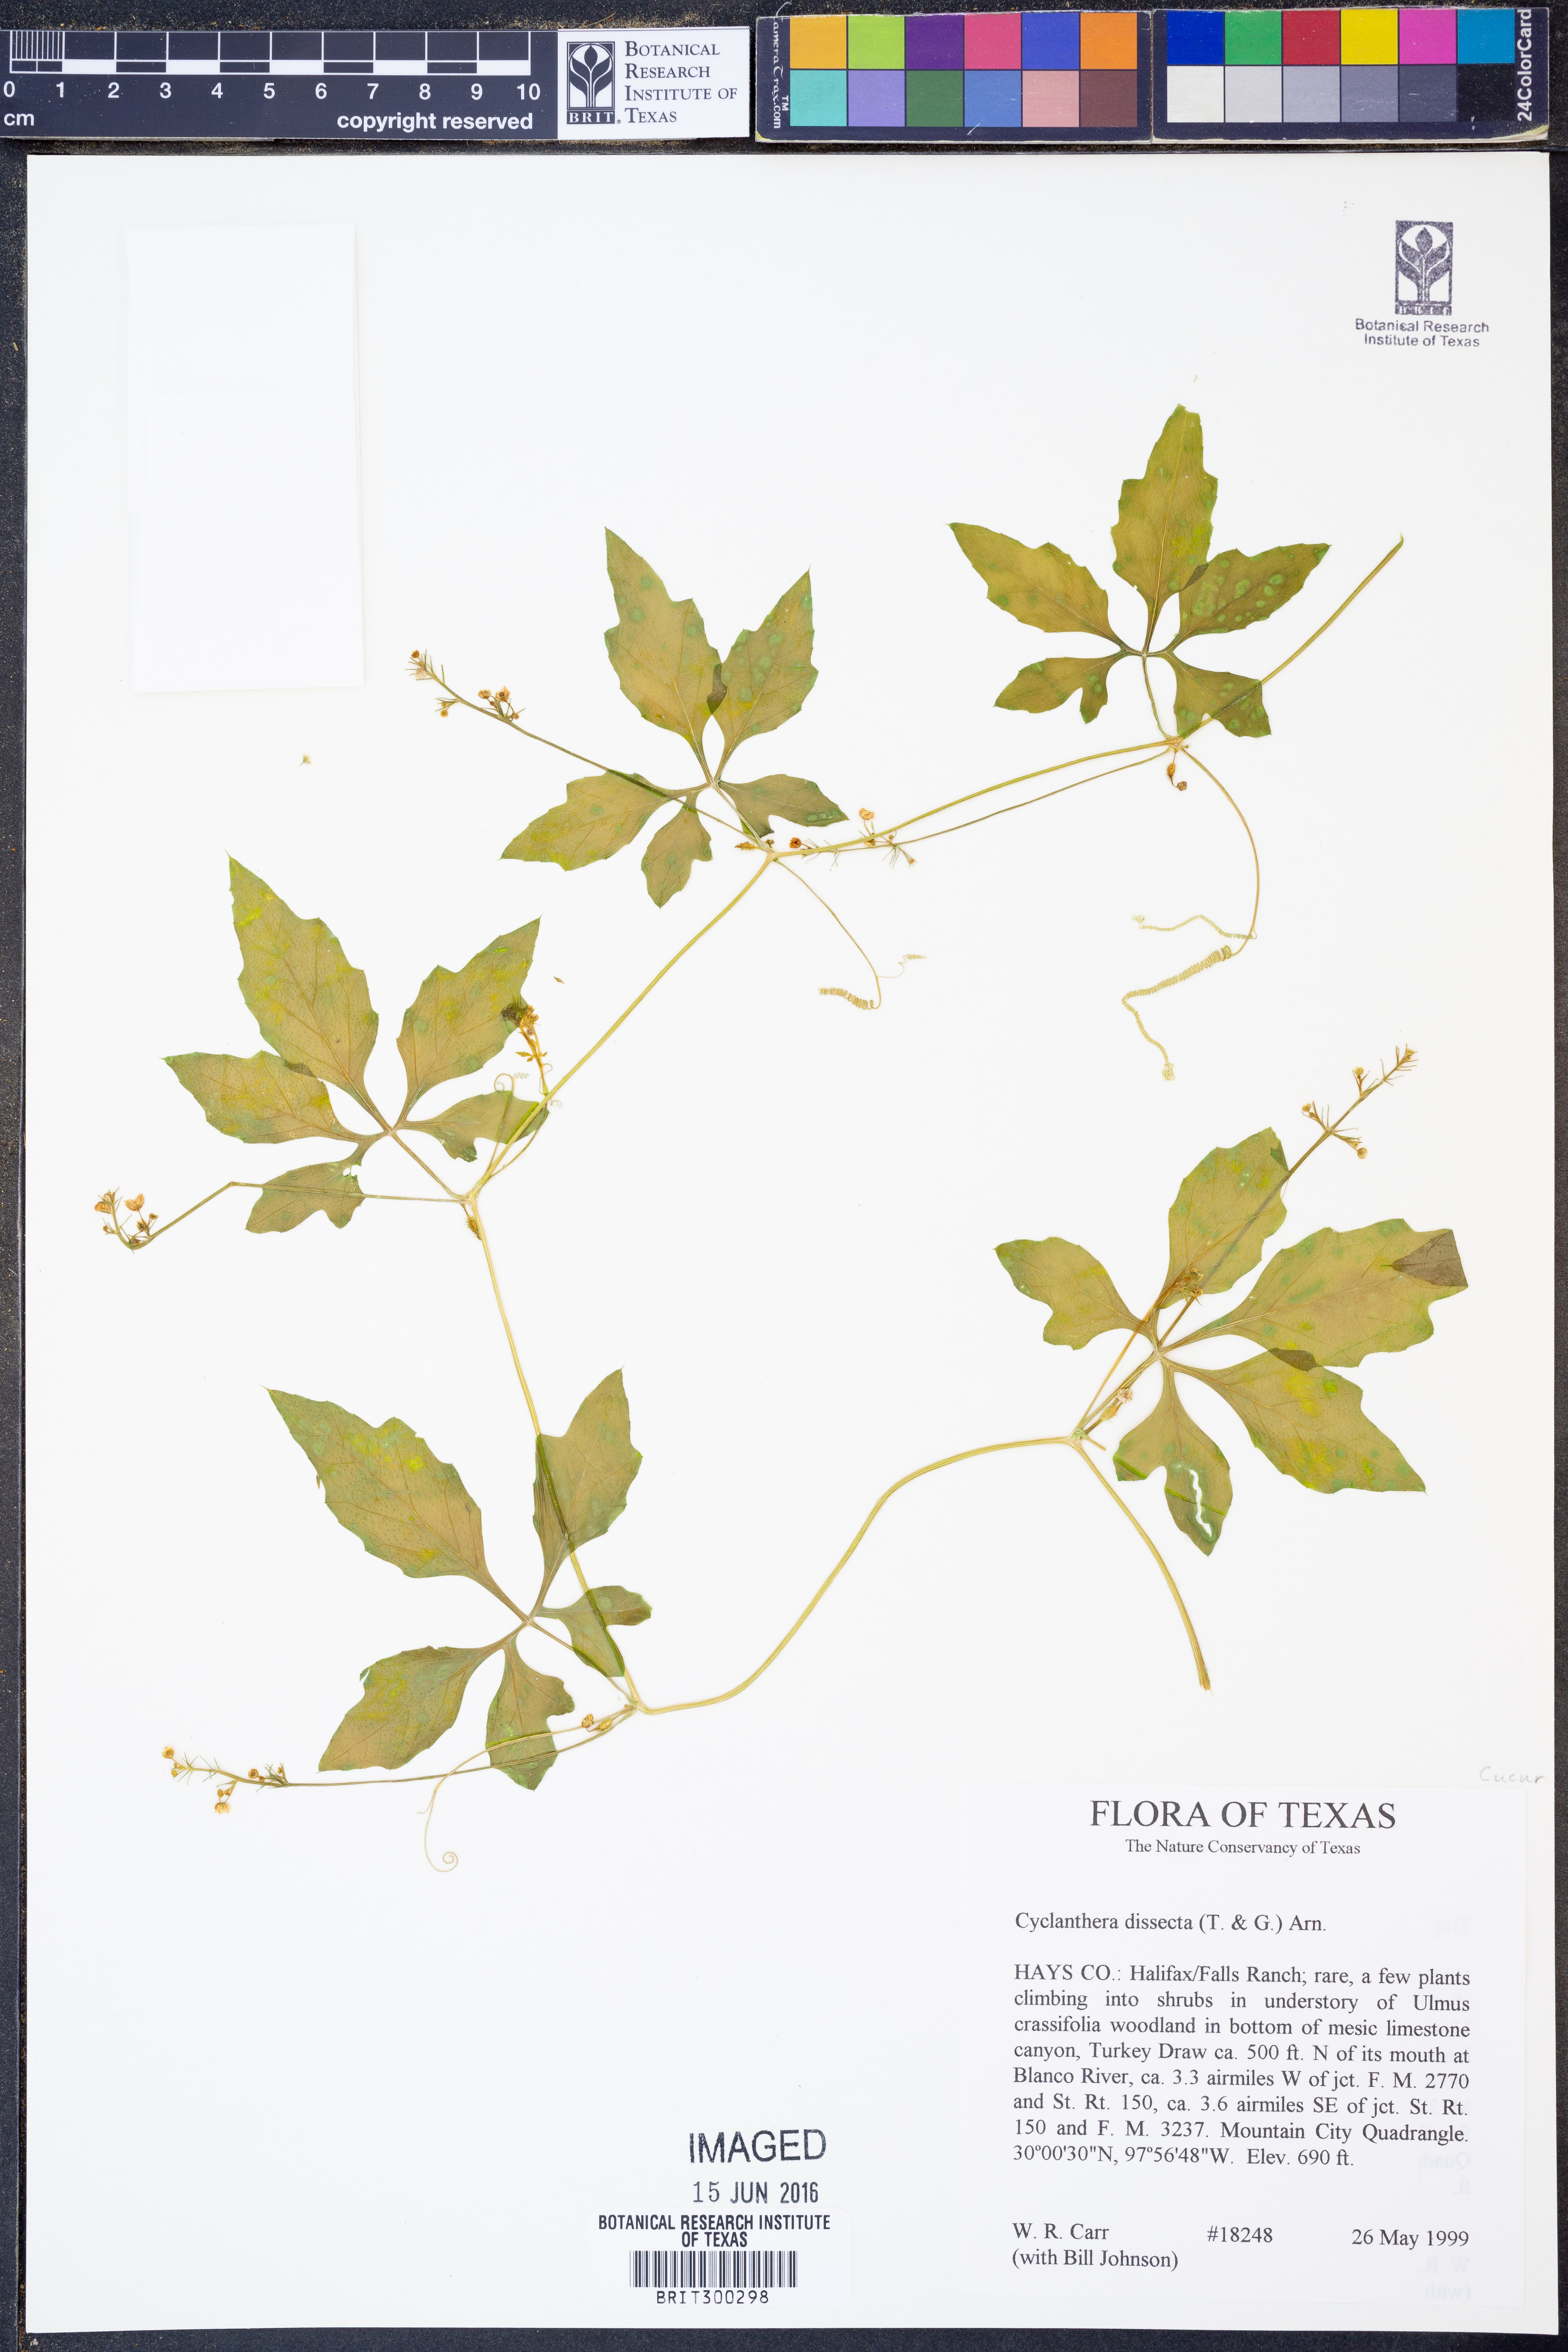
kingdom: Plantae
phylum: Tracheophyta
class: Magnoliopsida
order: Cucurbitales
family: Cucurbitaceae
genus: Cyclanthera
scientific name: Cyclanthera dissecta
